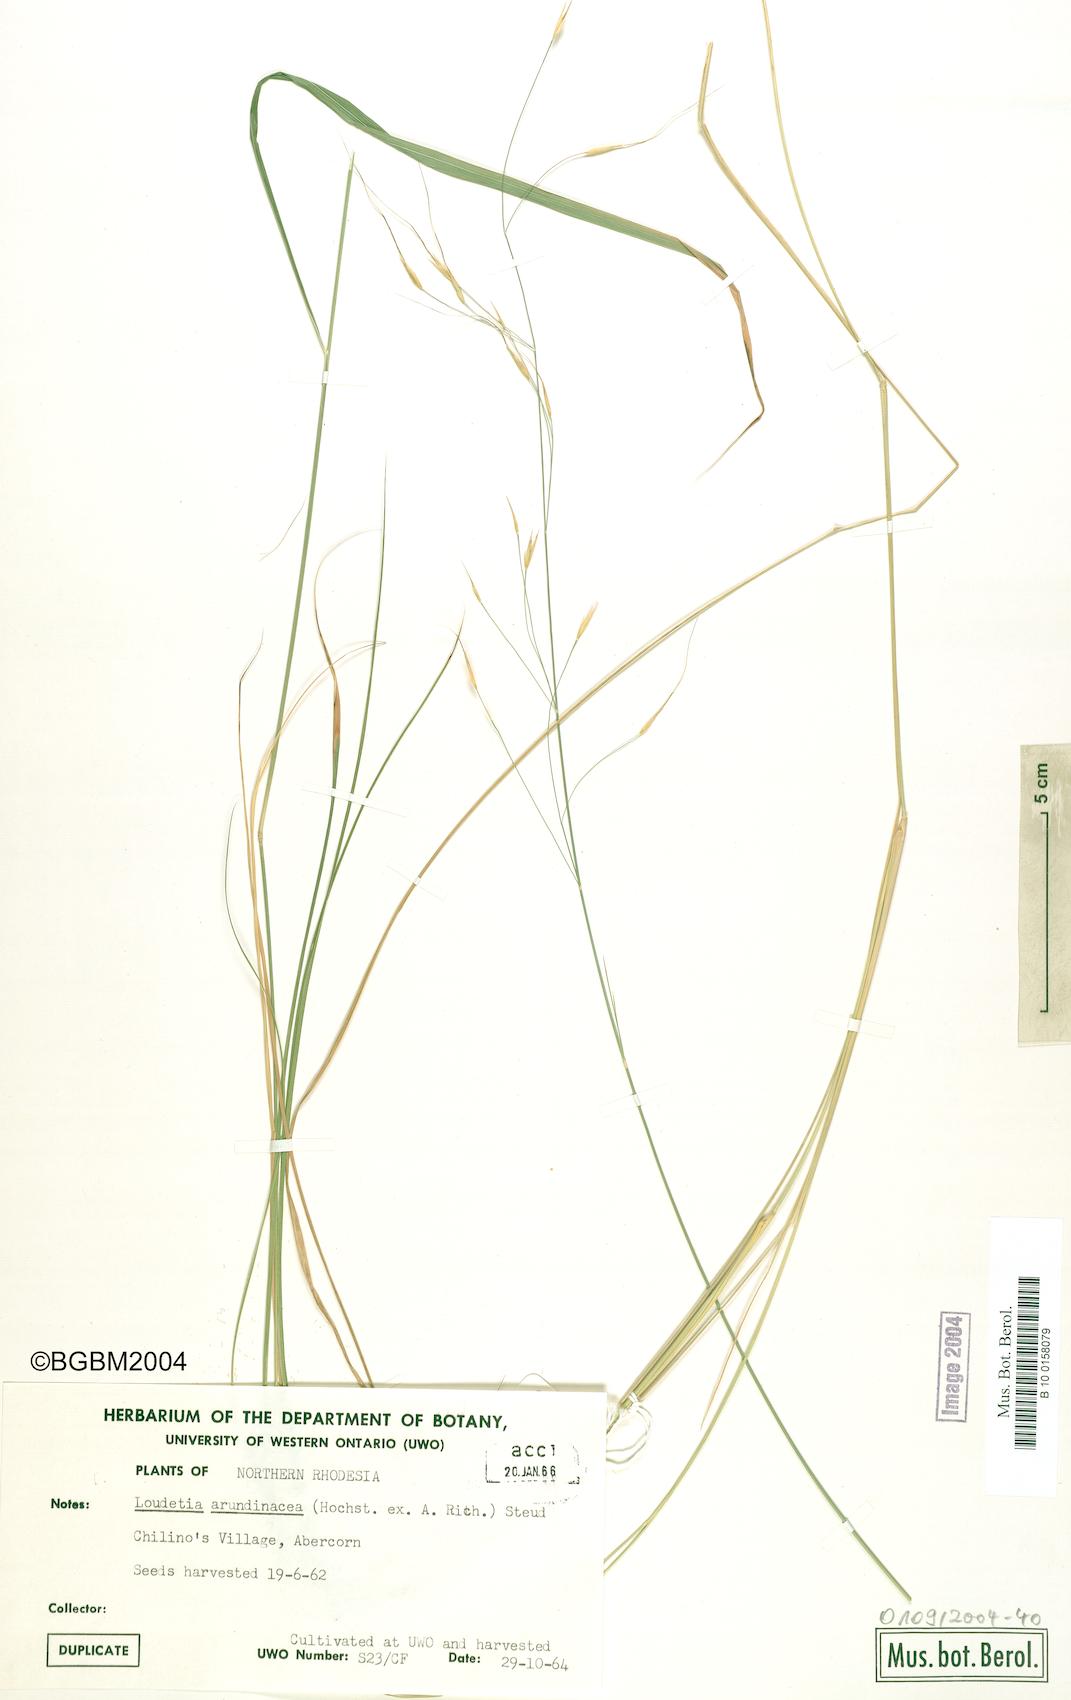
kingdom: Plantae
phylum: Tracheophyta
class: Liliopsida
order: Poales
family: Poaceae
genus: Loudetia
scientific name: Loudetia arundinacea
